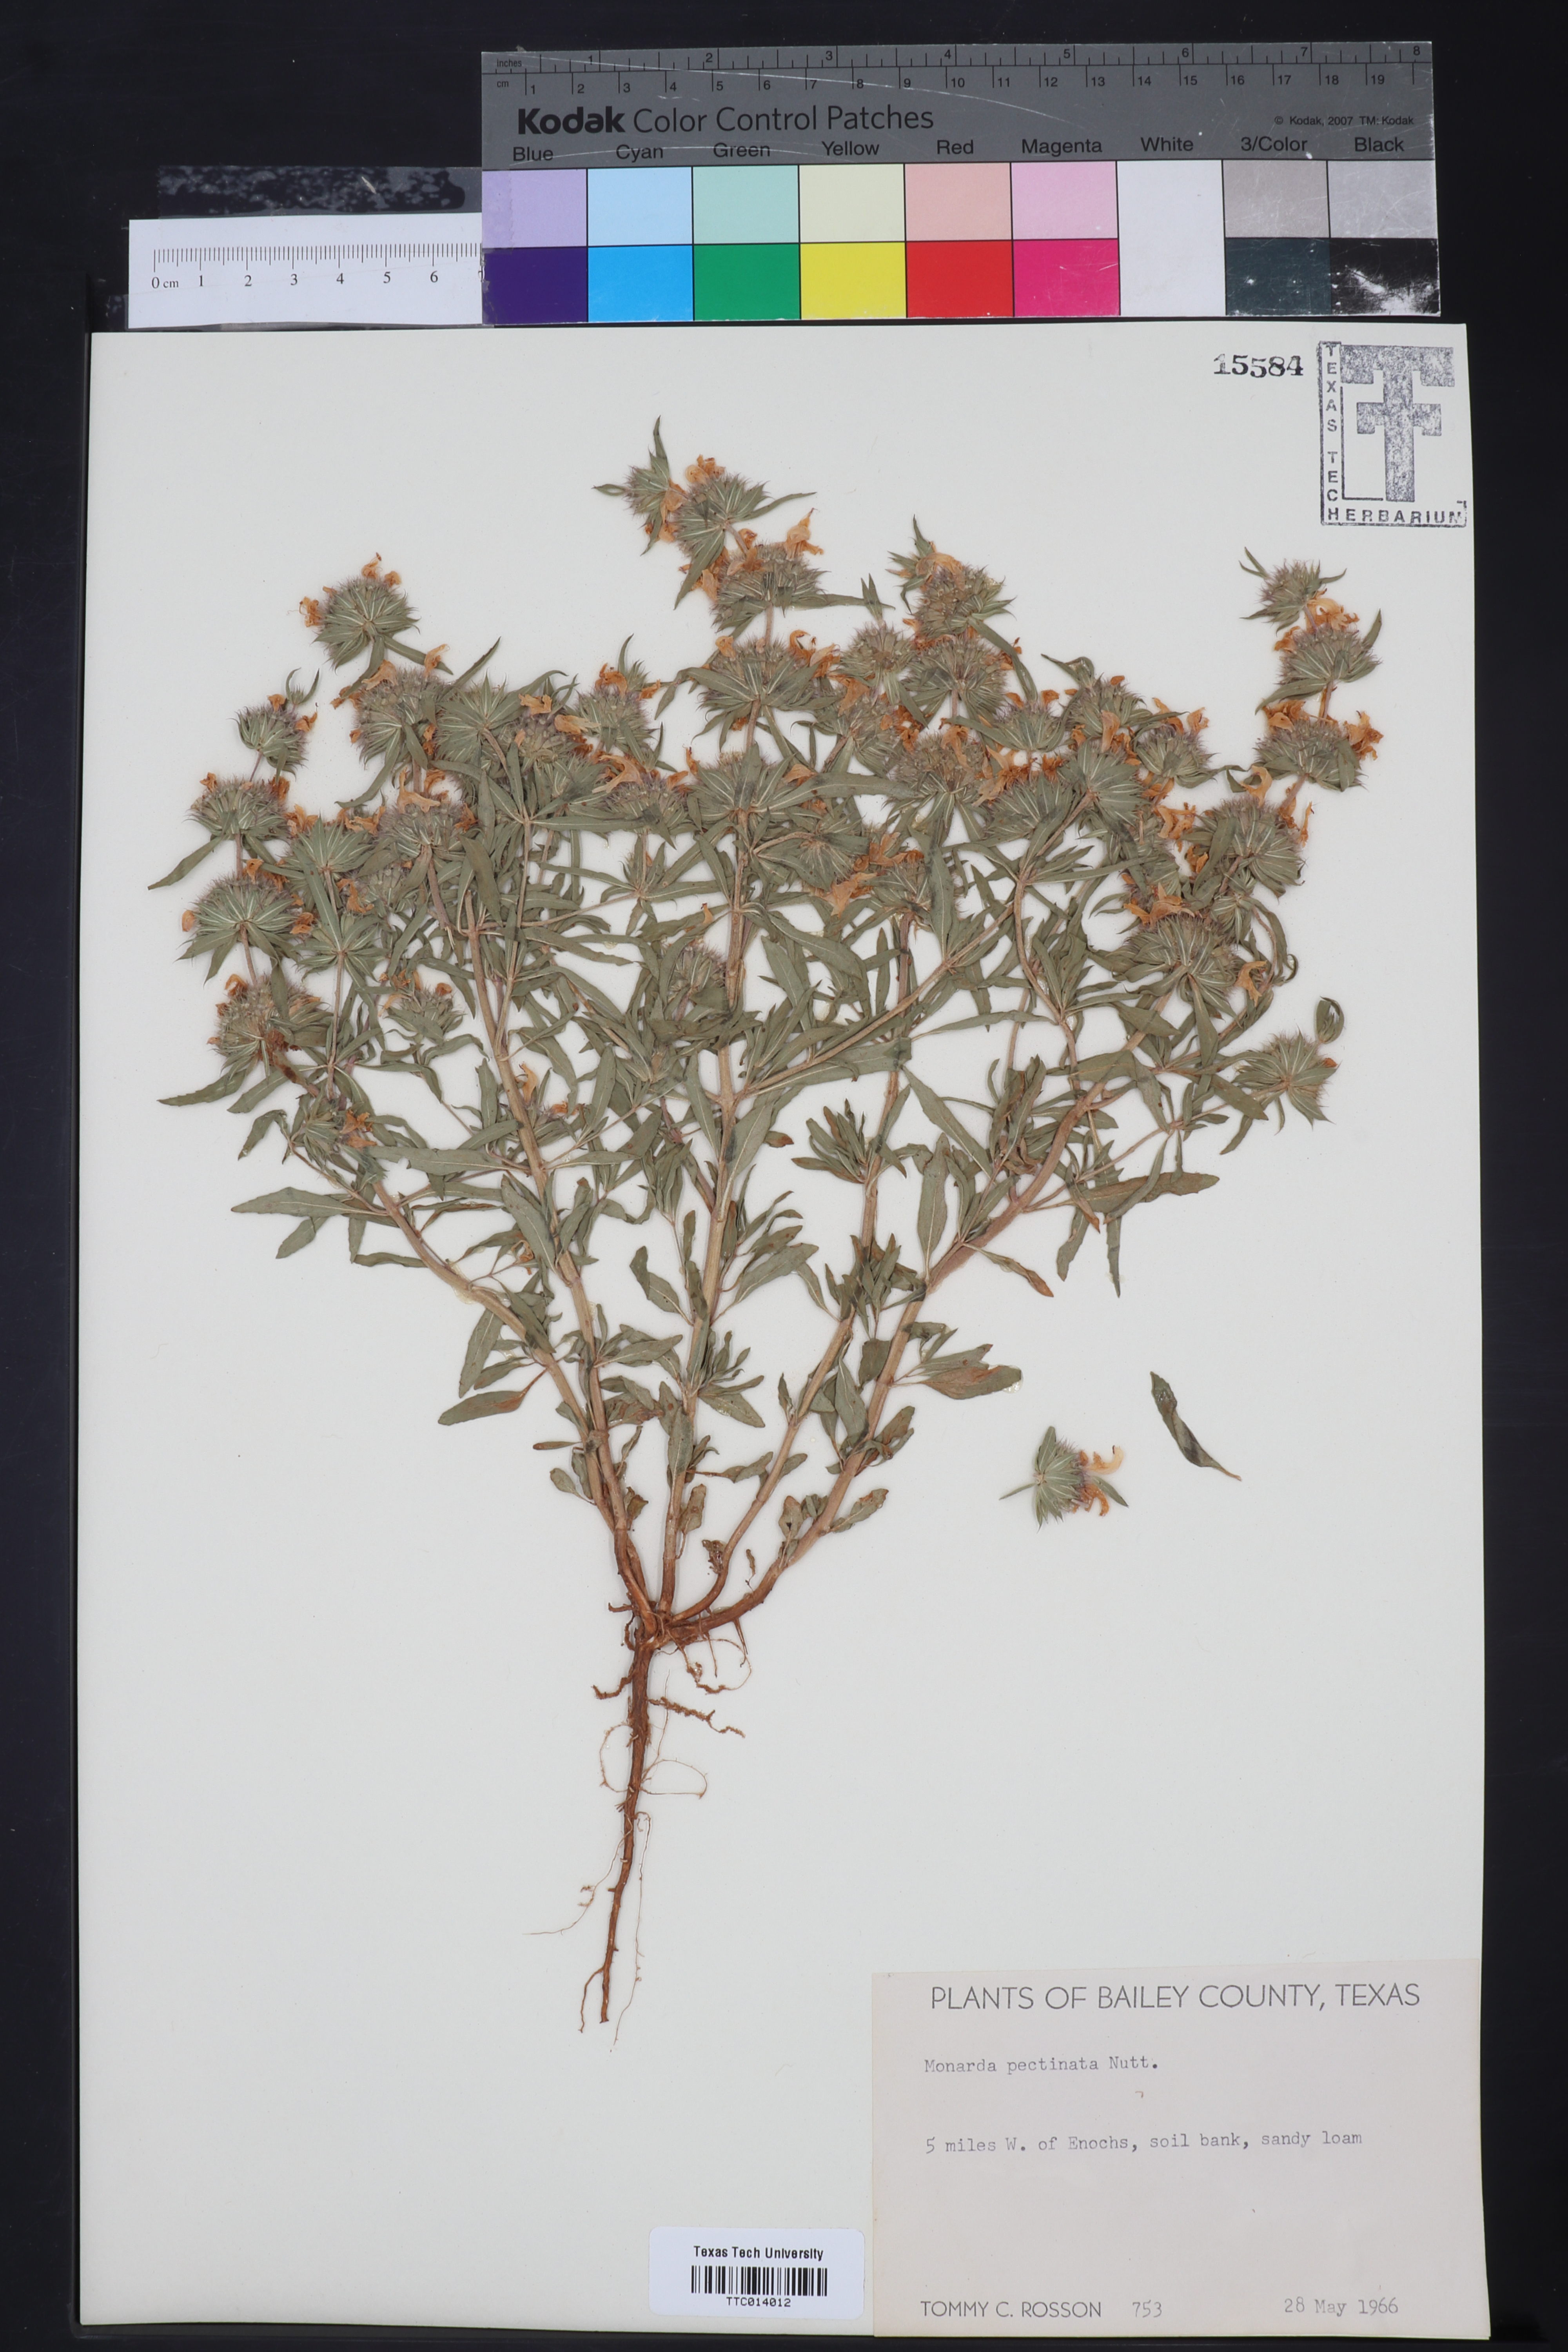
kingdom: Plantae
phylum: Tracheophyta
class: Magnoliopsida
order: Lamiales
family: Lamiaceae
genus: Monarda
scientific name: Monarda pectinata
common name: Plains beebalm
